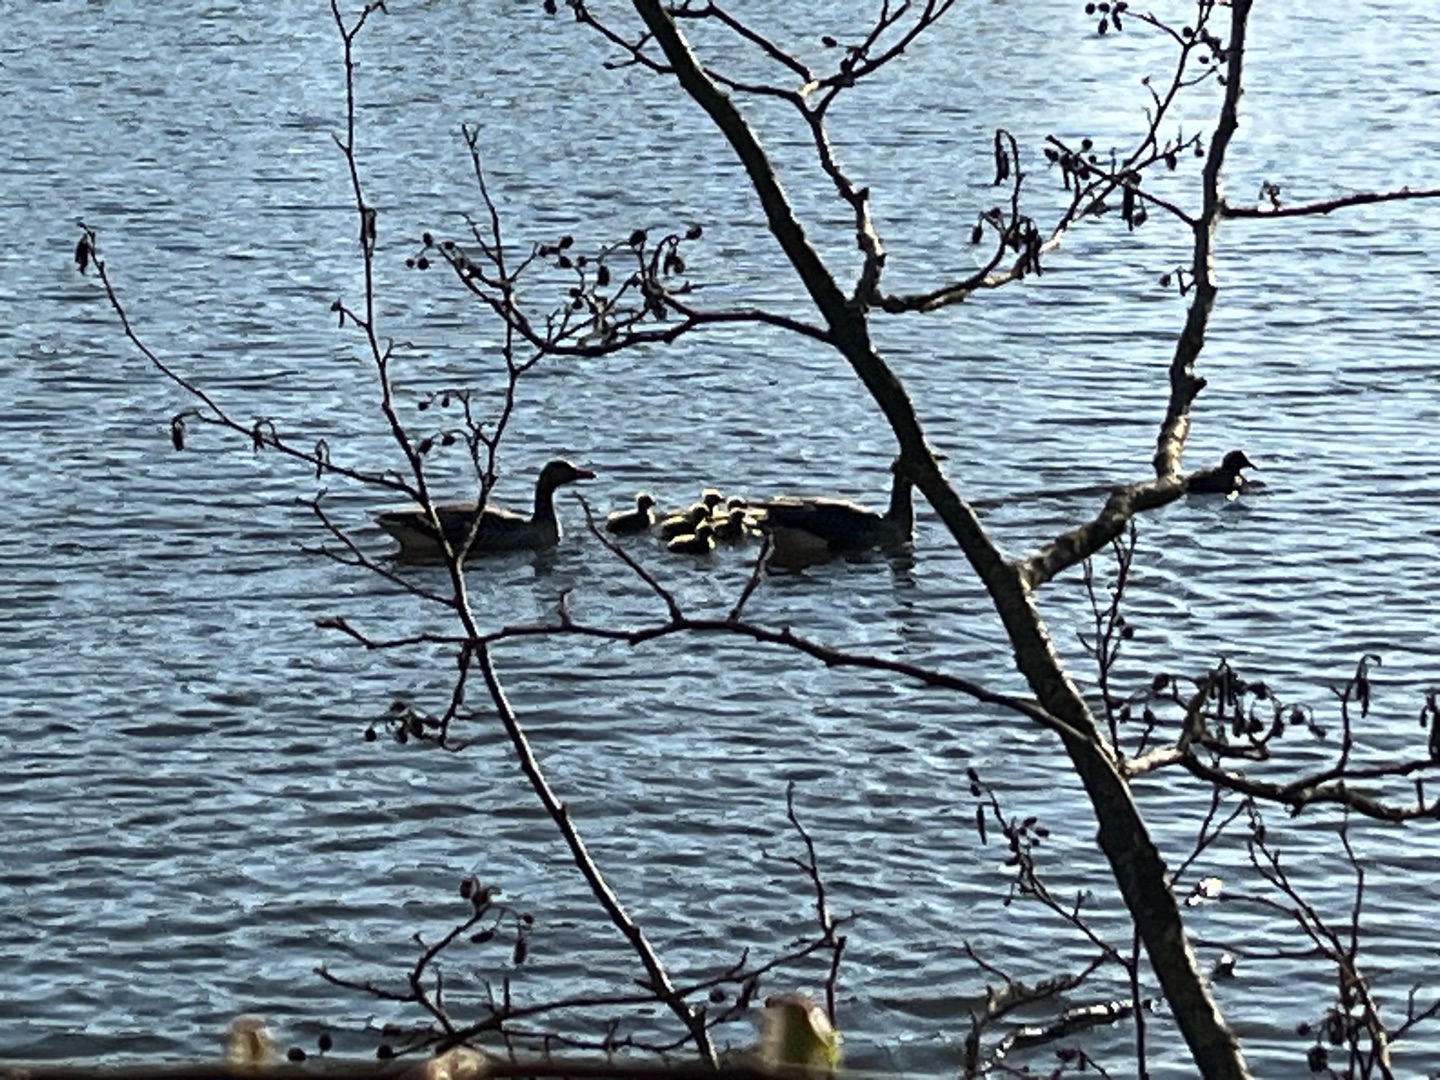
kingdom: Animalia
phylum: Chordata
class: Aves
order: Anseriformes
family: Anatidae
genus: Anser
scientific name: Anser anser
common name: Grågås
